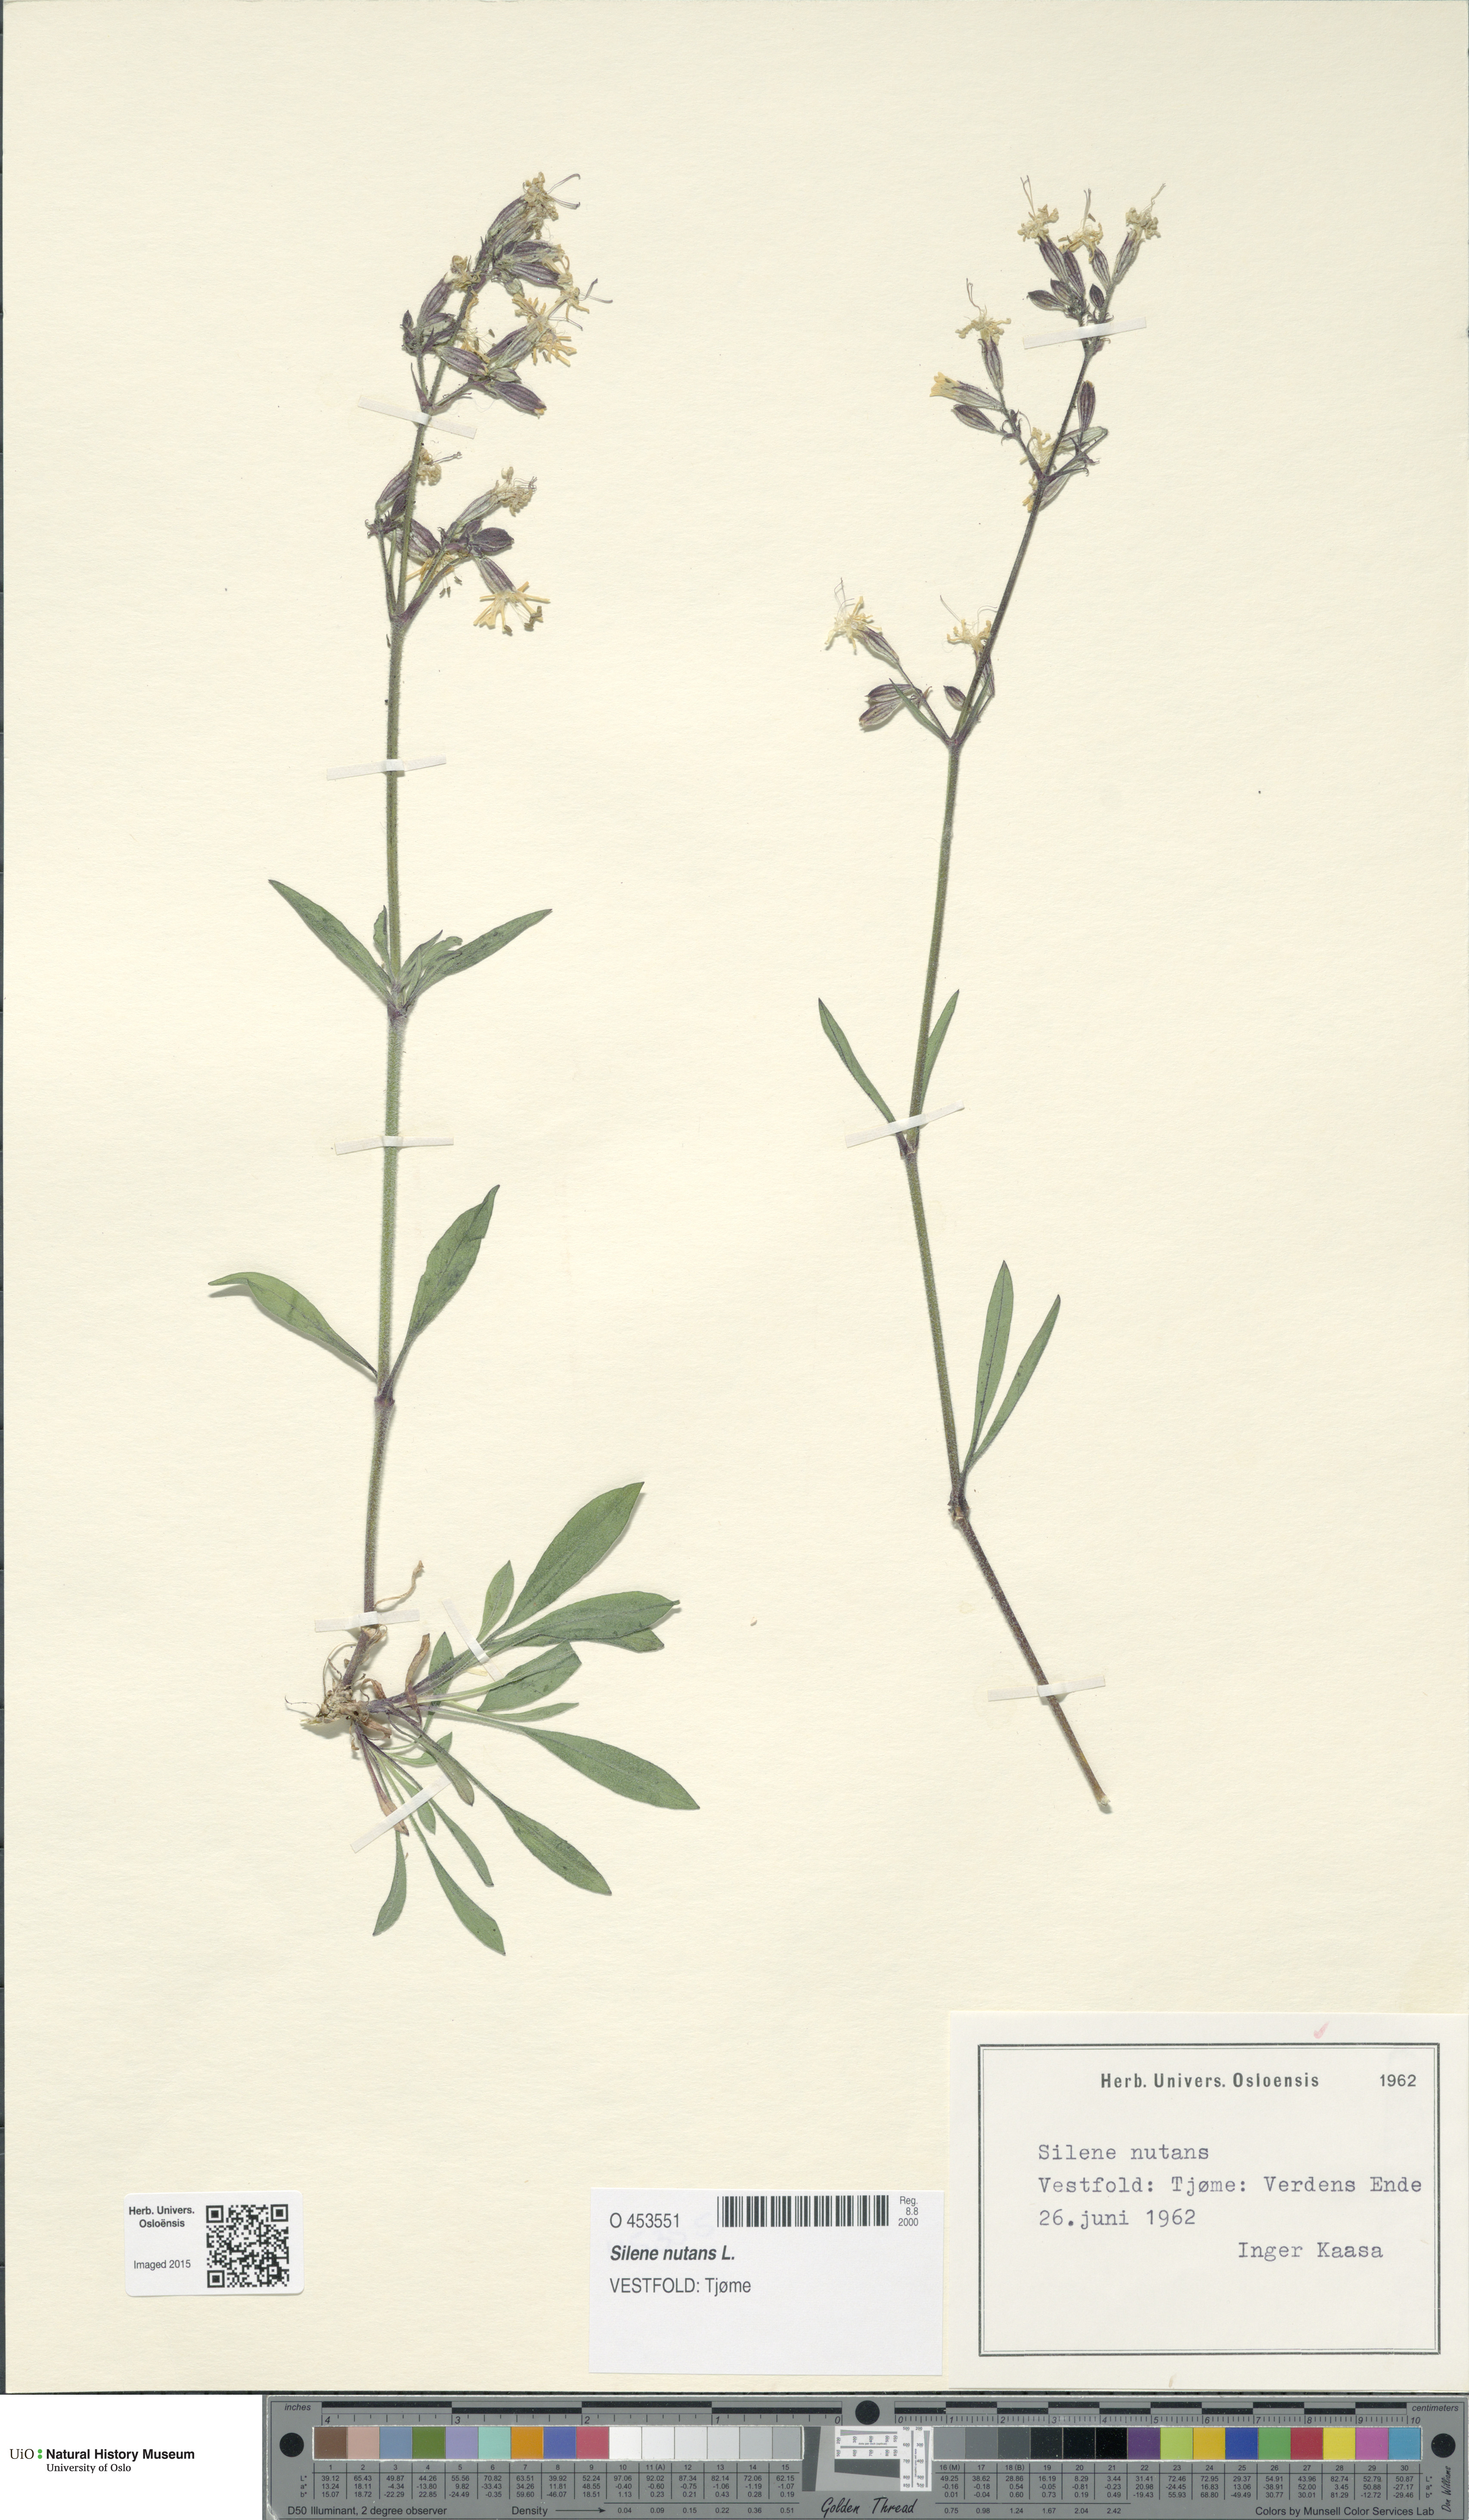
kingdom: Plantae
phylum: Tracheophyta
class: Magnoliopsida
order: Caryophyllales
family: Caryophyllaceae
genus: Silene
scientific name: Silene nutans
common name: Nottingham catchfly
